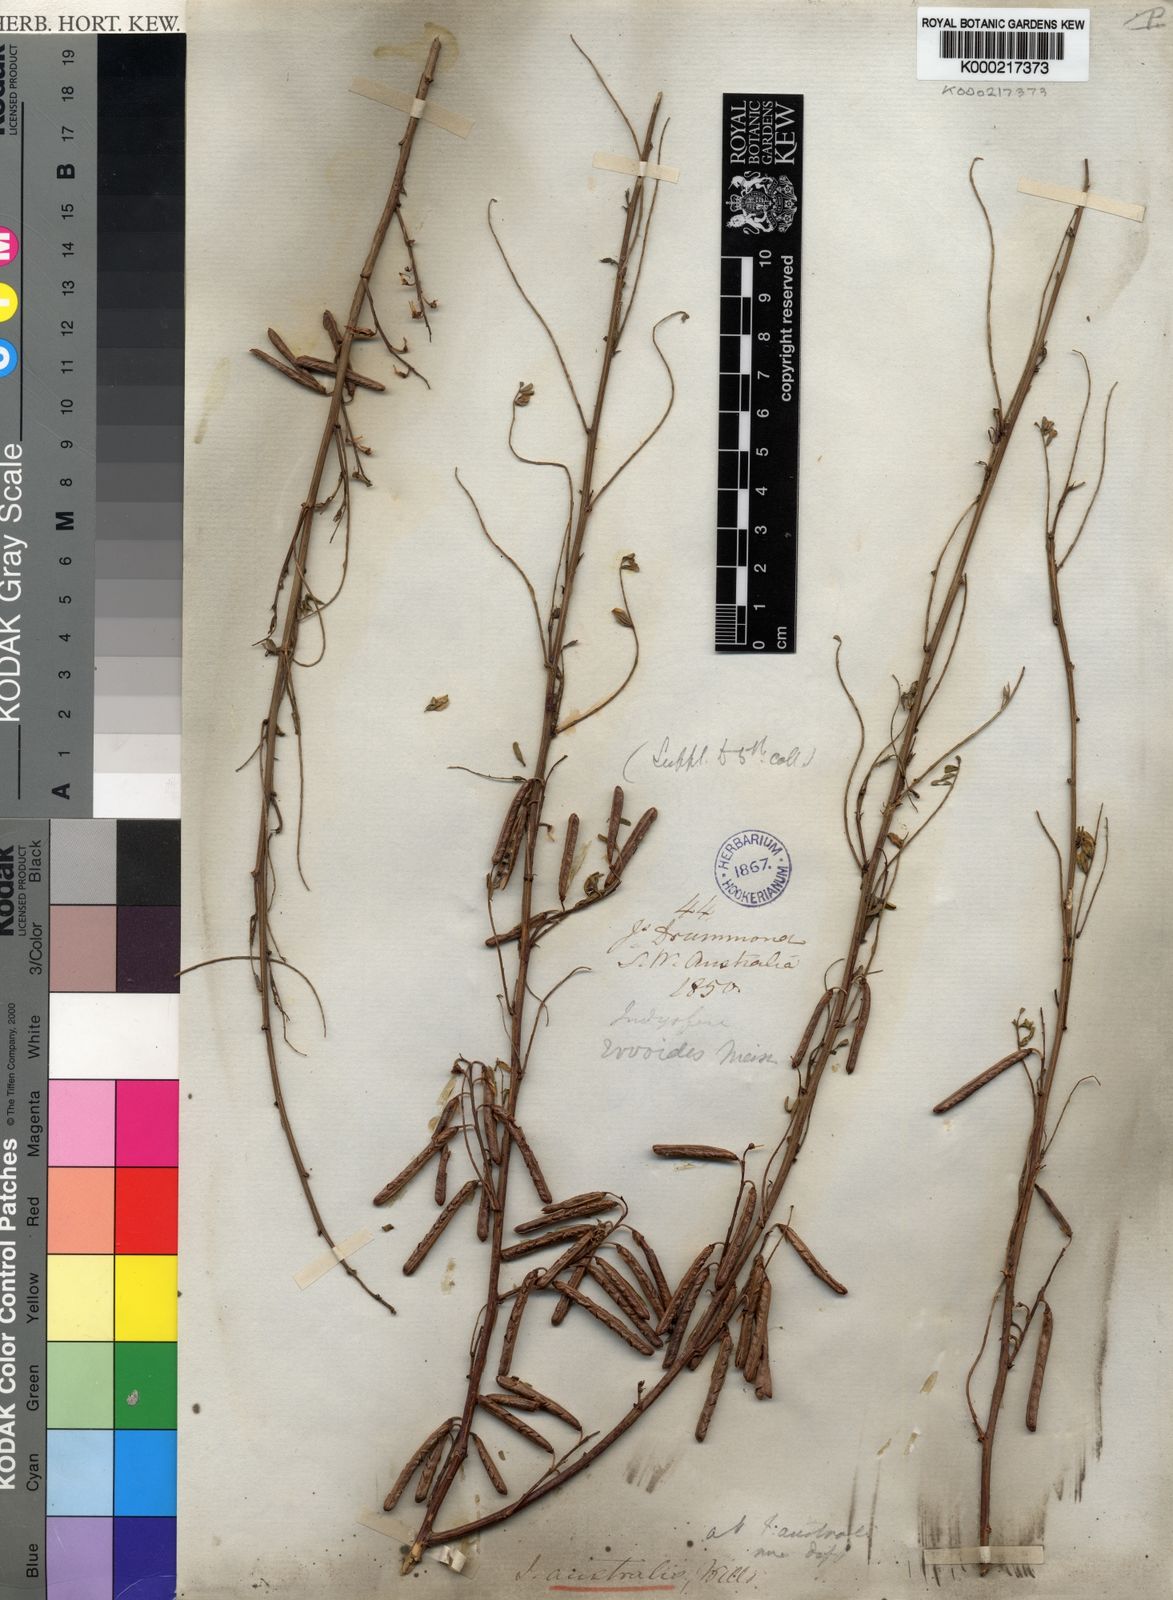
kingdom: Plantae
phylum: Tracheophyta
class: Magnoliopsida
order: Fabales
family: Fabaceae
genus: Indigofera
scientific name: Indigofera australis
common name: Australian indigo
